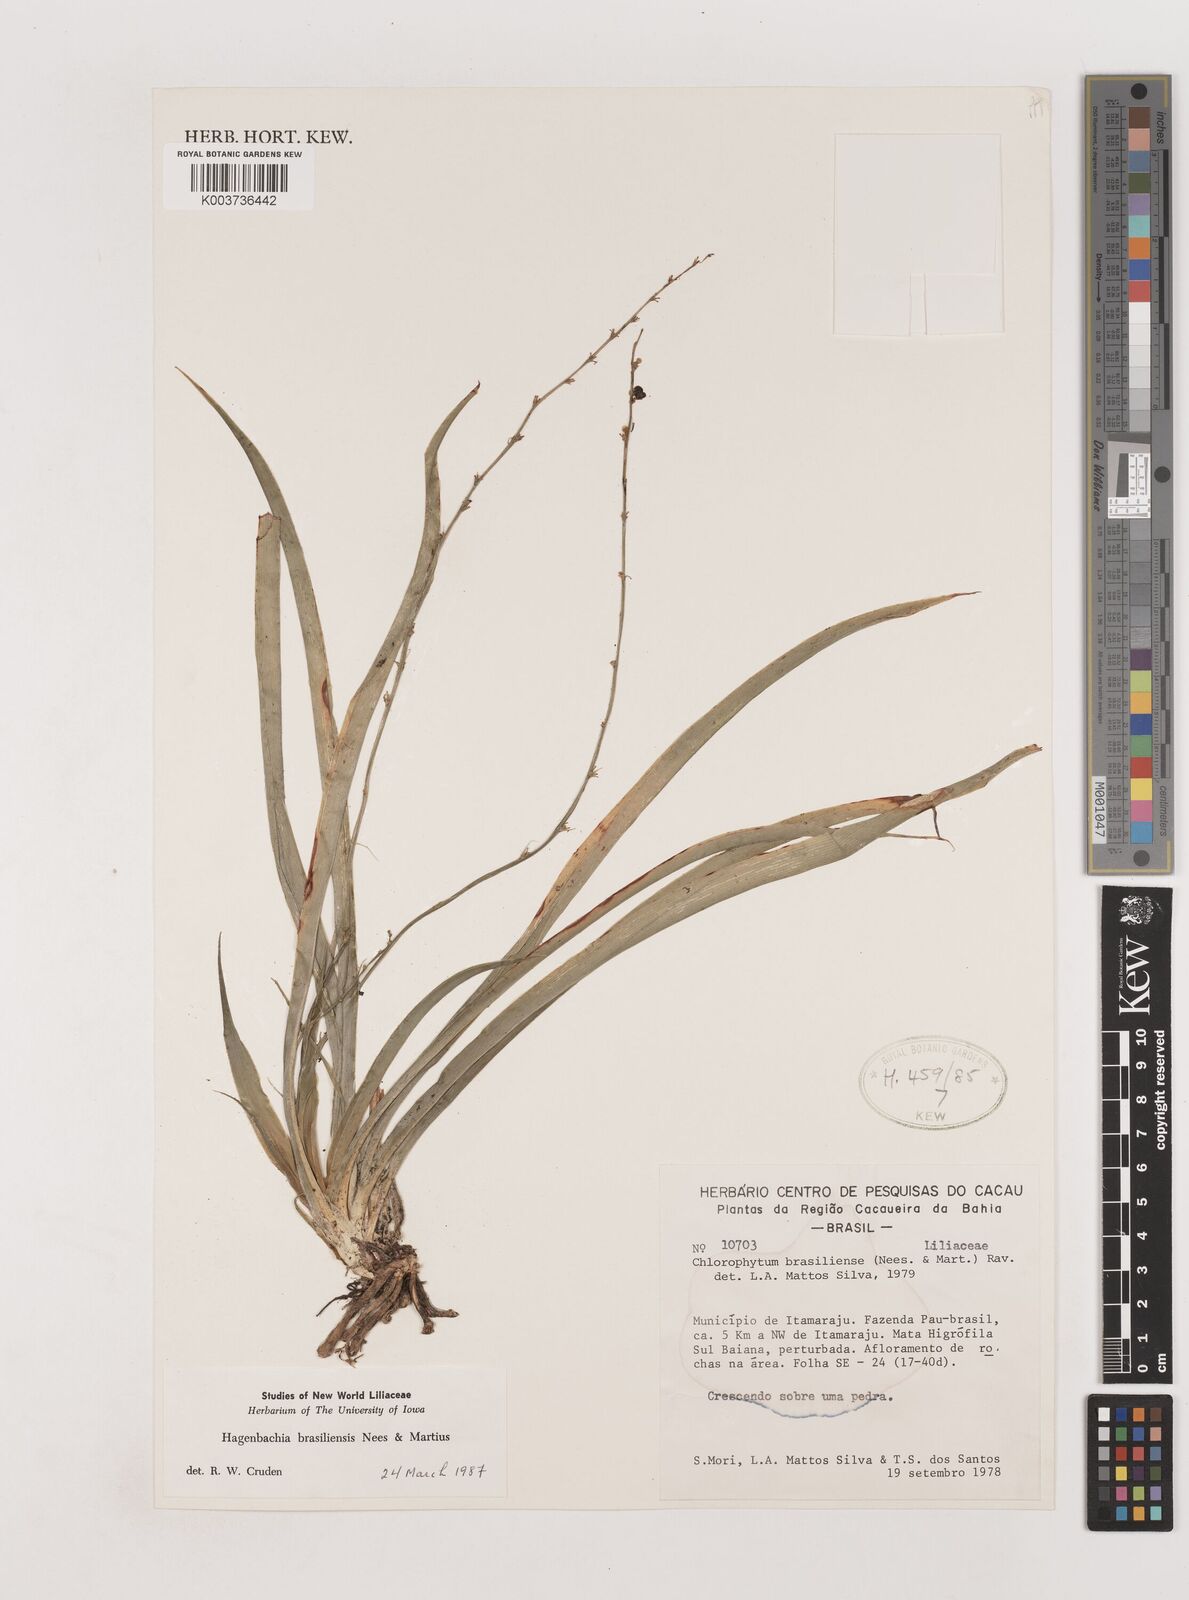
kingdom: Plantae
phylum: Tracheophyta
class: Liliopsida
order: Asparagales
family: Asparagaceae
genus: Hagenbachia
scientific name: Hagenbachia matogrossensis
